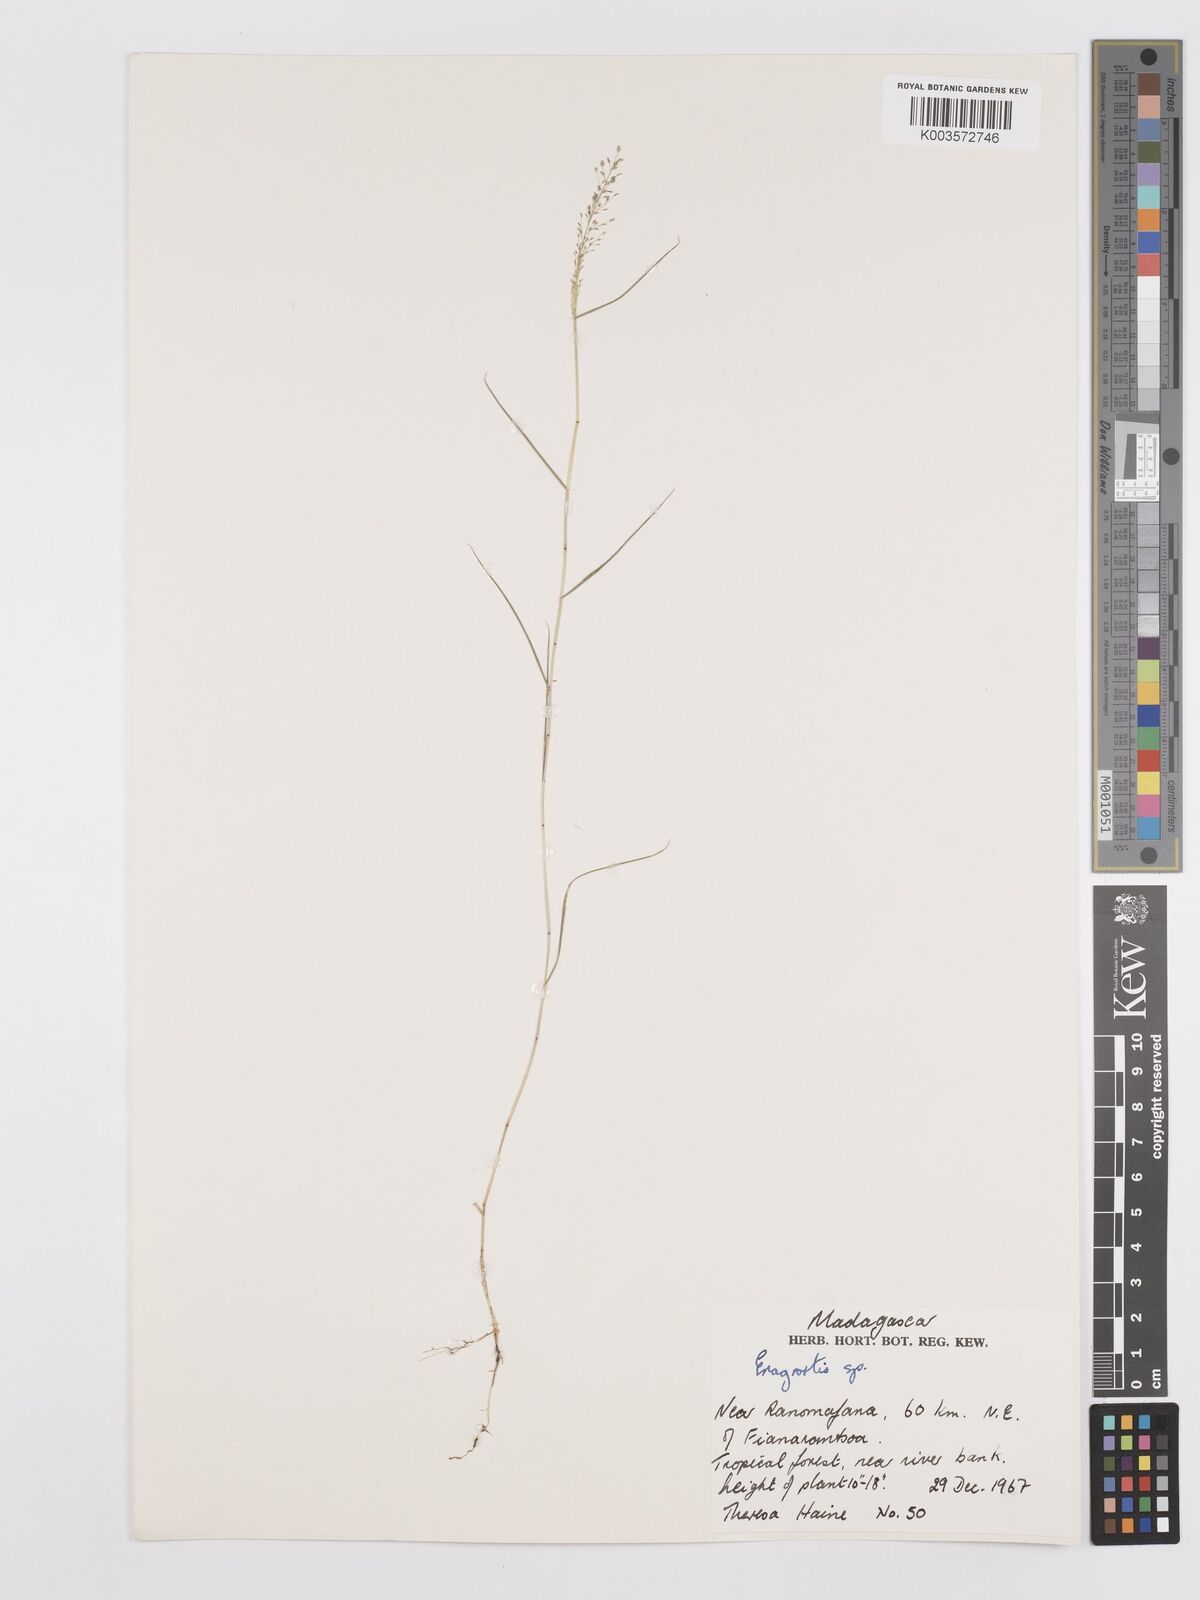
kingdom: Plantae
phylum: Tracheophyta
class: Liliopsida
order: Poales
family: Poaceae
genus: Eragrostis
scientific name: Eragrostis
